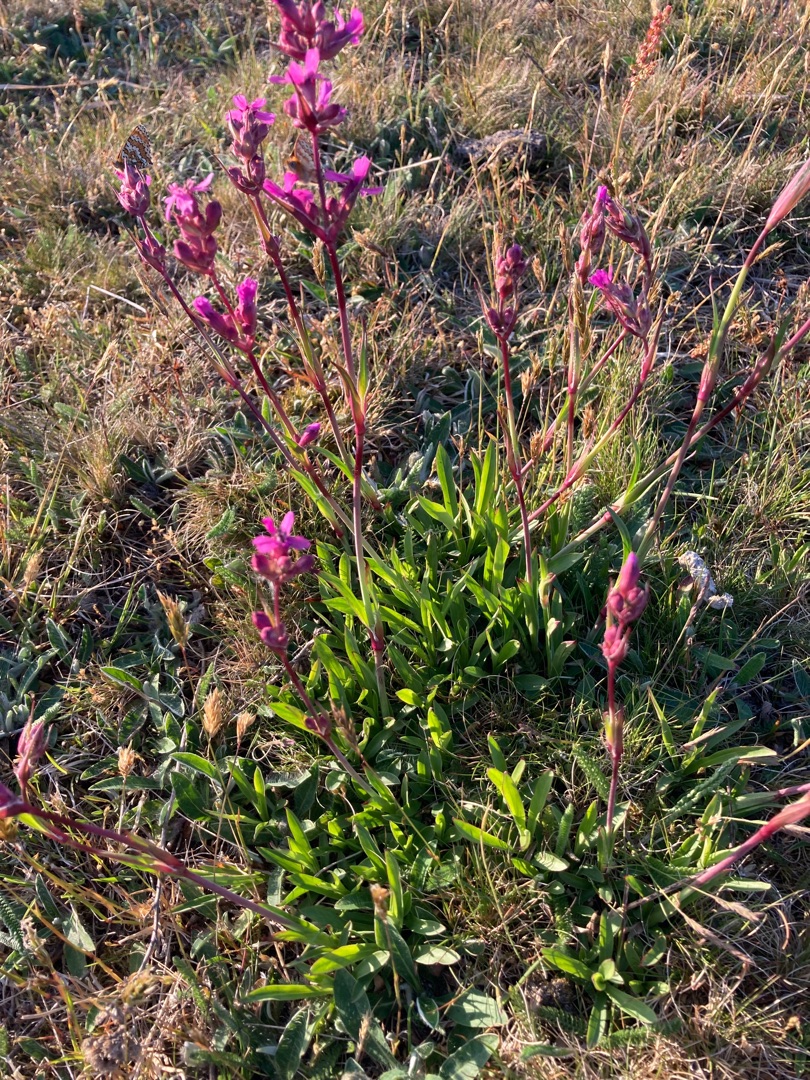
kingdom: Plantae
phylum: Tracheophyta
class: Magnoliopsida
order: Caryophyllales
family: Caryophyllaceae
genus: Viscaria
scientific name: Viscaria vulgaris
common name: Tjærenellike
